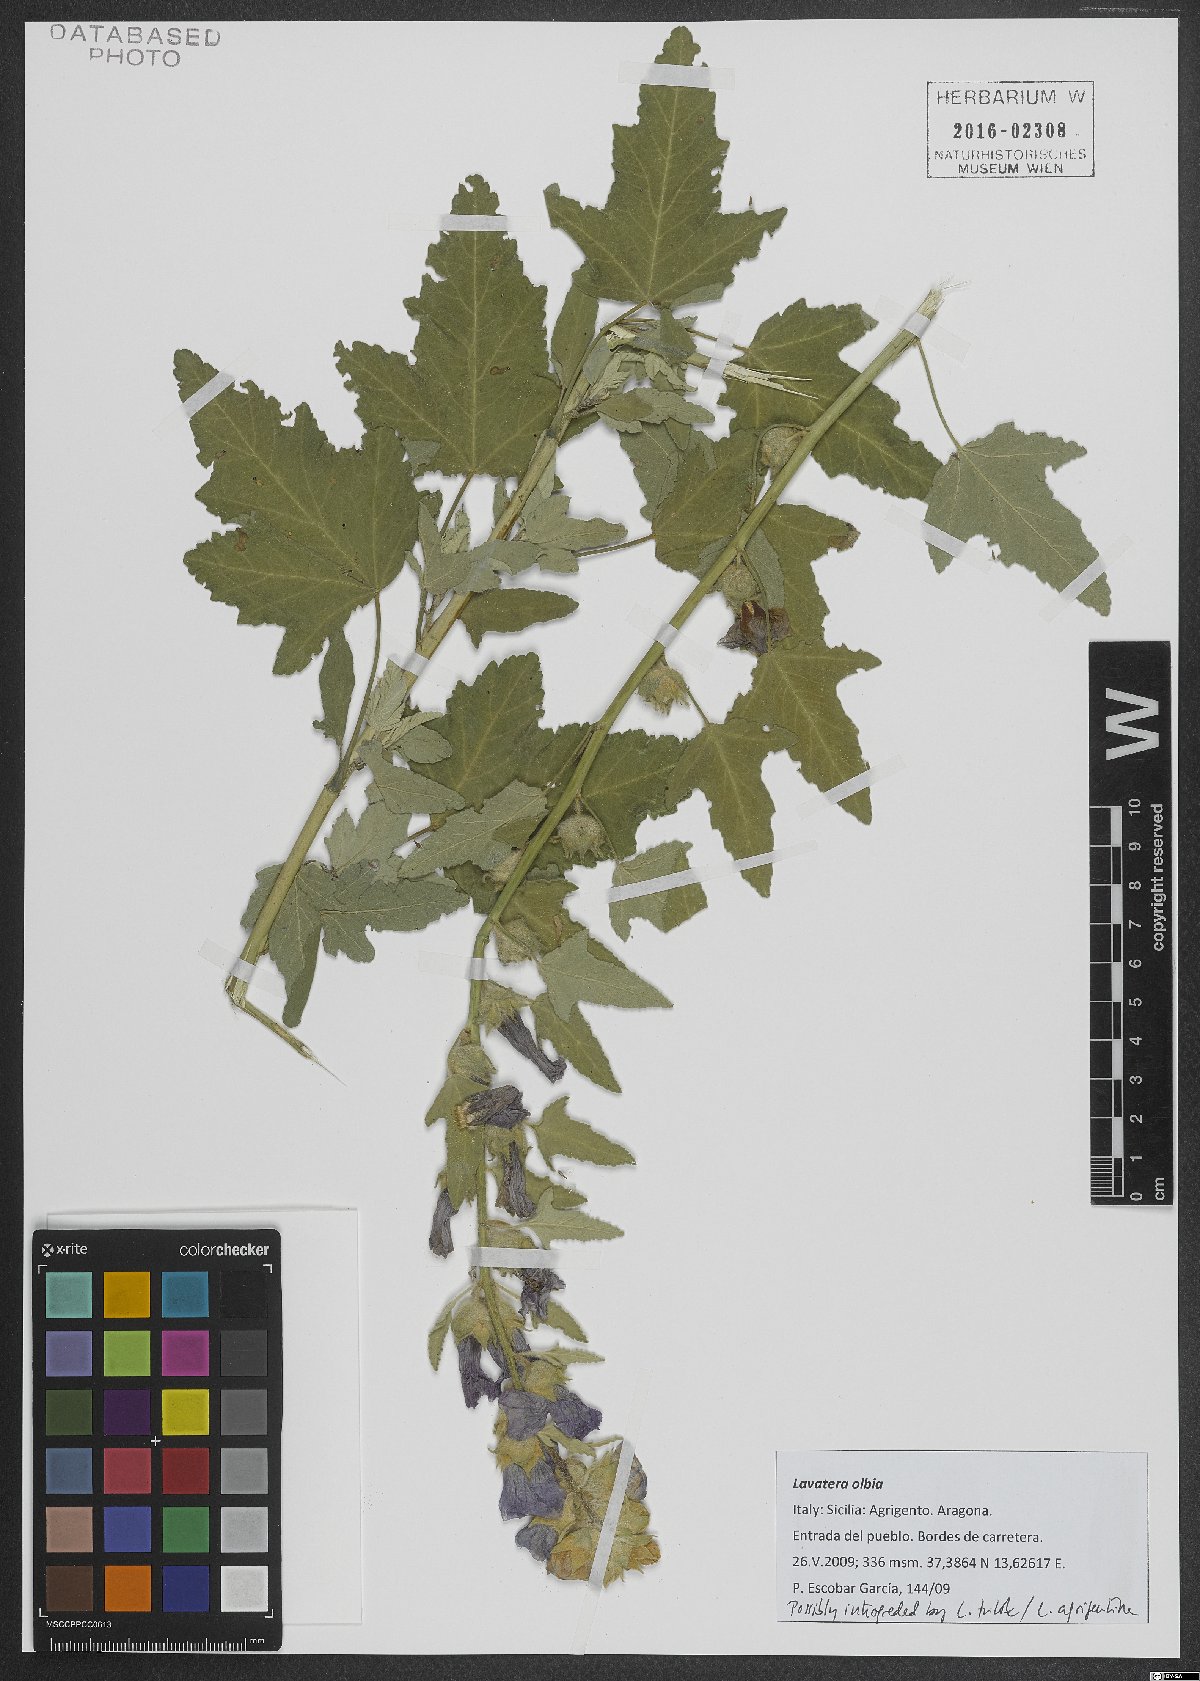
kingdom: Plantae
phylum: Tracheophyta
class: Magnoliopsida
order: Malvales
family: Malvaceae
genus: Malva
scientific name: Malva olbia
